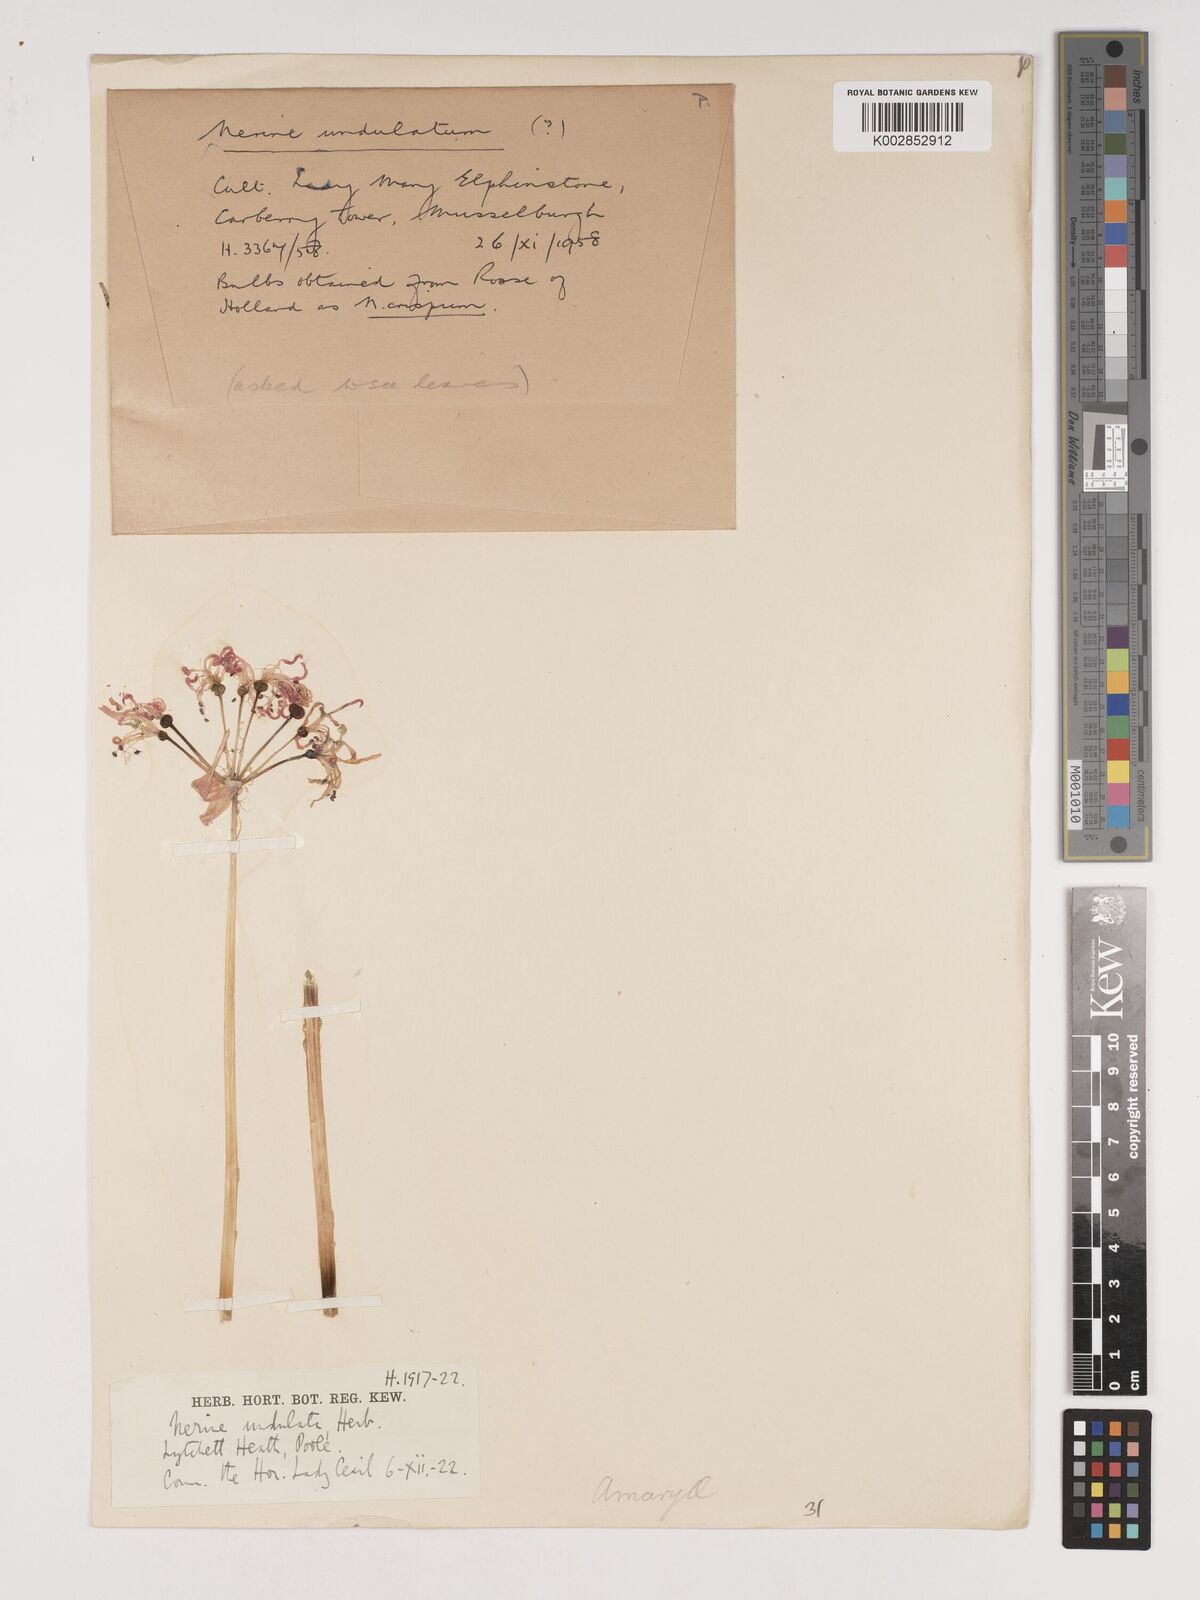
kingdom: Plantae
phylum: Tracheophyta
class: Liliopsida
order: Asparagales
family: Amaryllidaceae
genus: Nerine
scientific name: Nerine undulata
